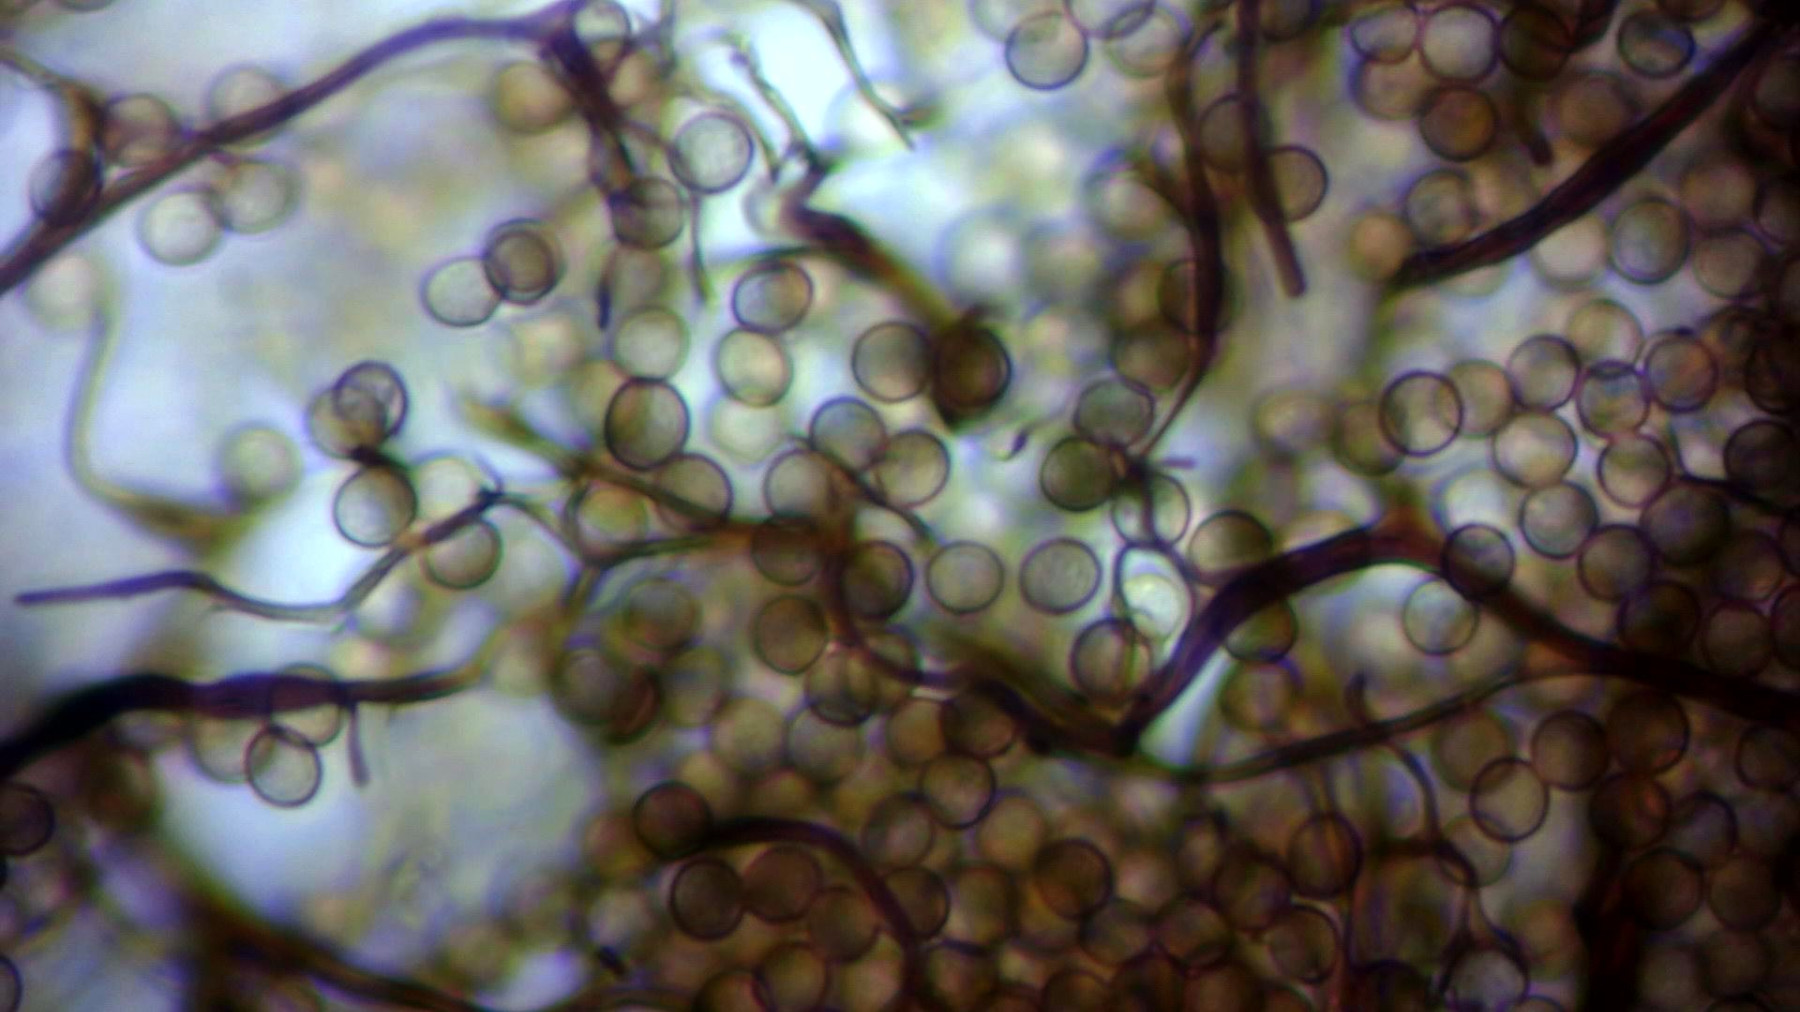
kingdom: Protozoa
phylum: Mycetozoa
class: Myxomycetes
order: Stemonitidales
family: Stemonitidaceae
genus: Stemonitis
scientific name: Stemonitis axifera
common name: rødbrun støvkølle
